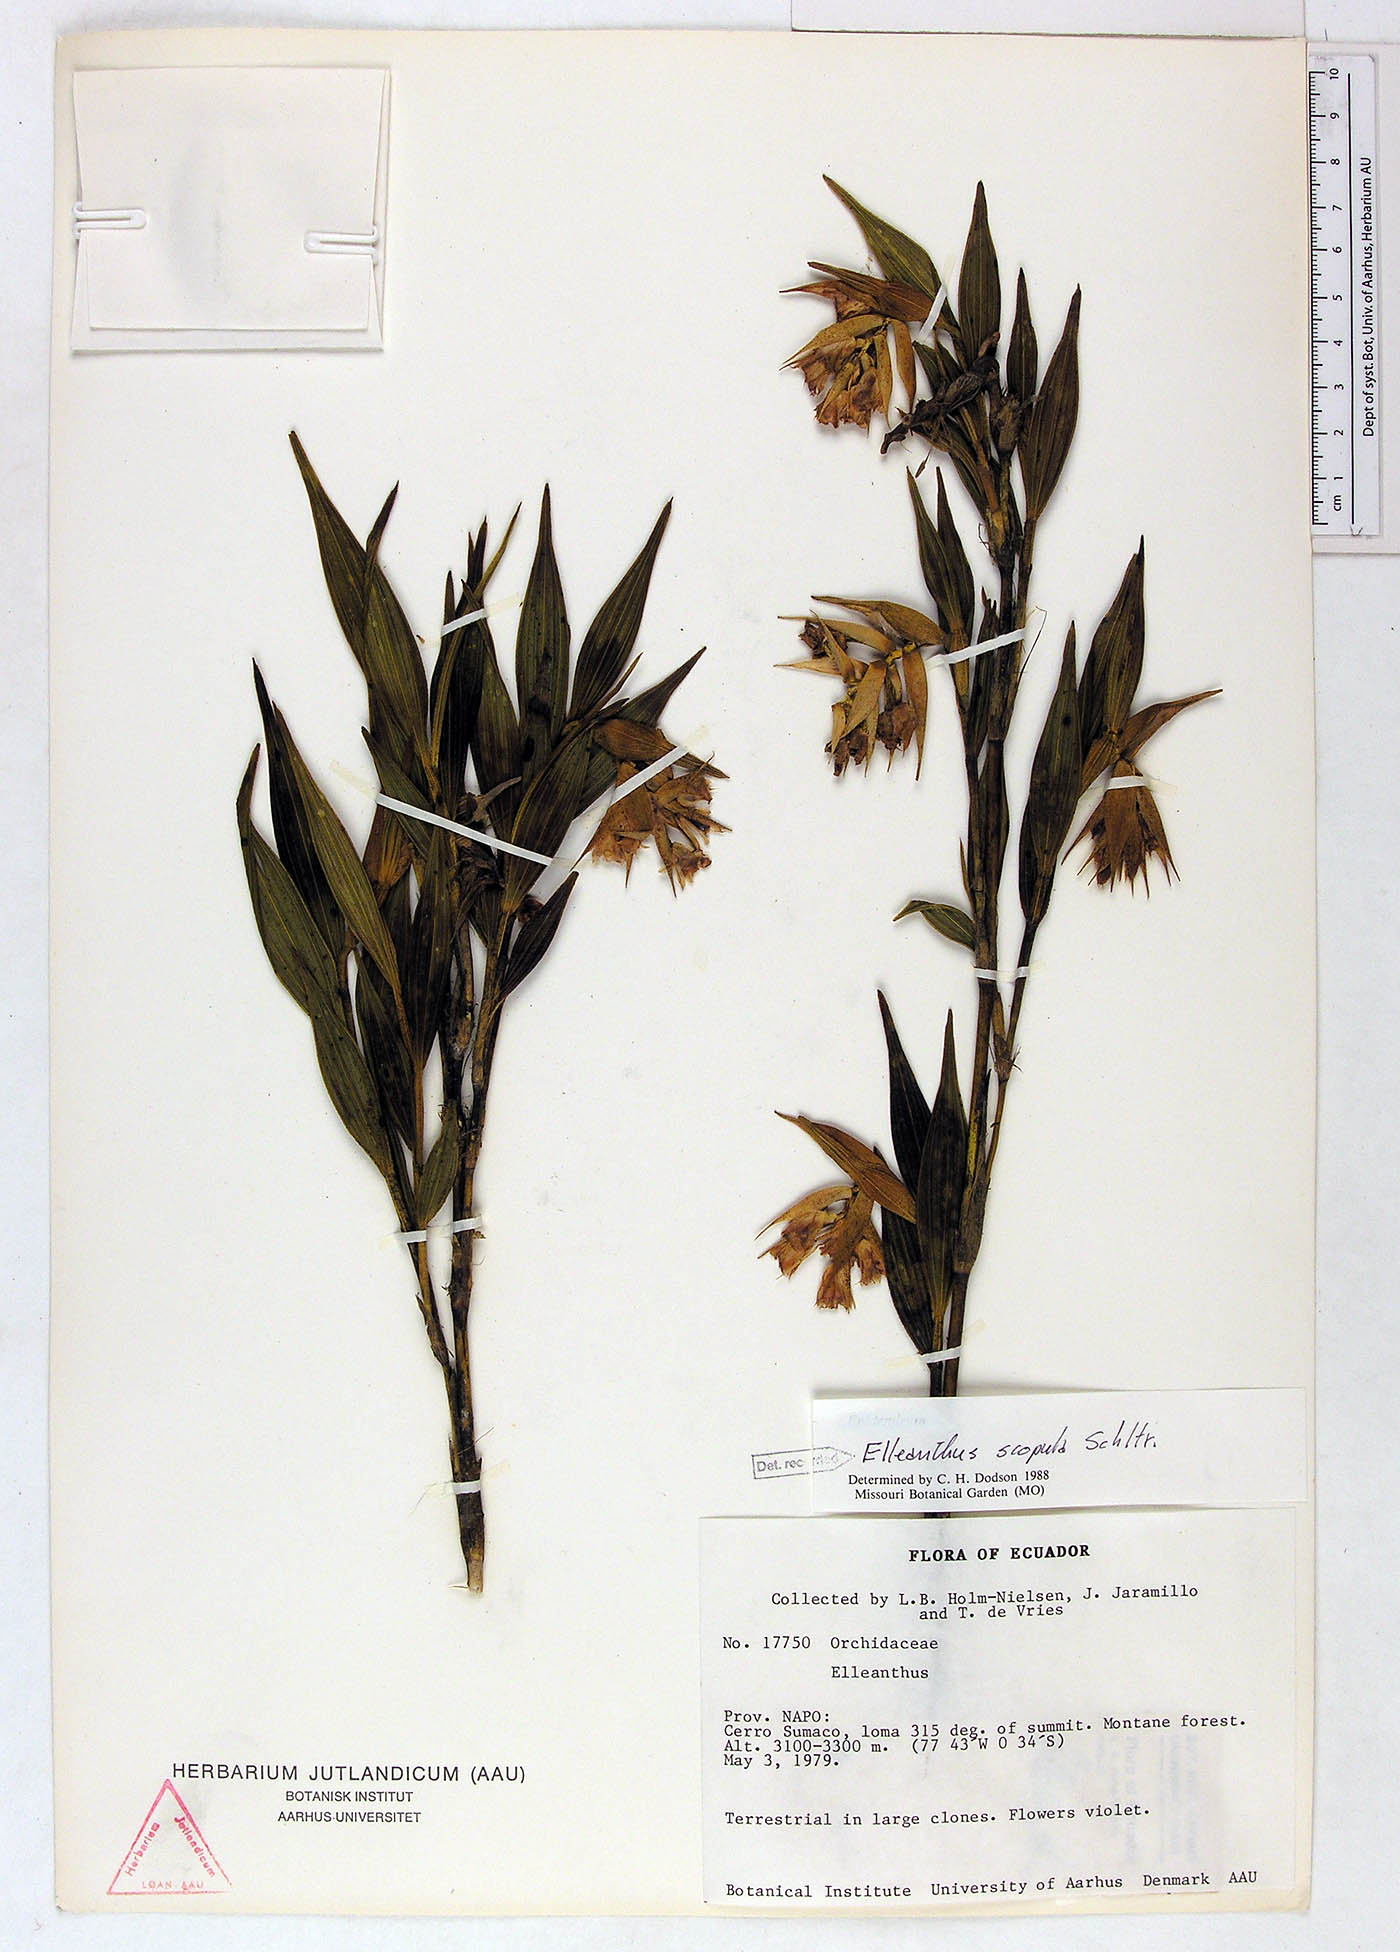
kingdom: Plantae
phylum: Tracheophyta
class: Liliopsida
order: Asparagales
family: Orchidaceae
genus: Elleanthus
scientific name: Elleanthus scopula
